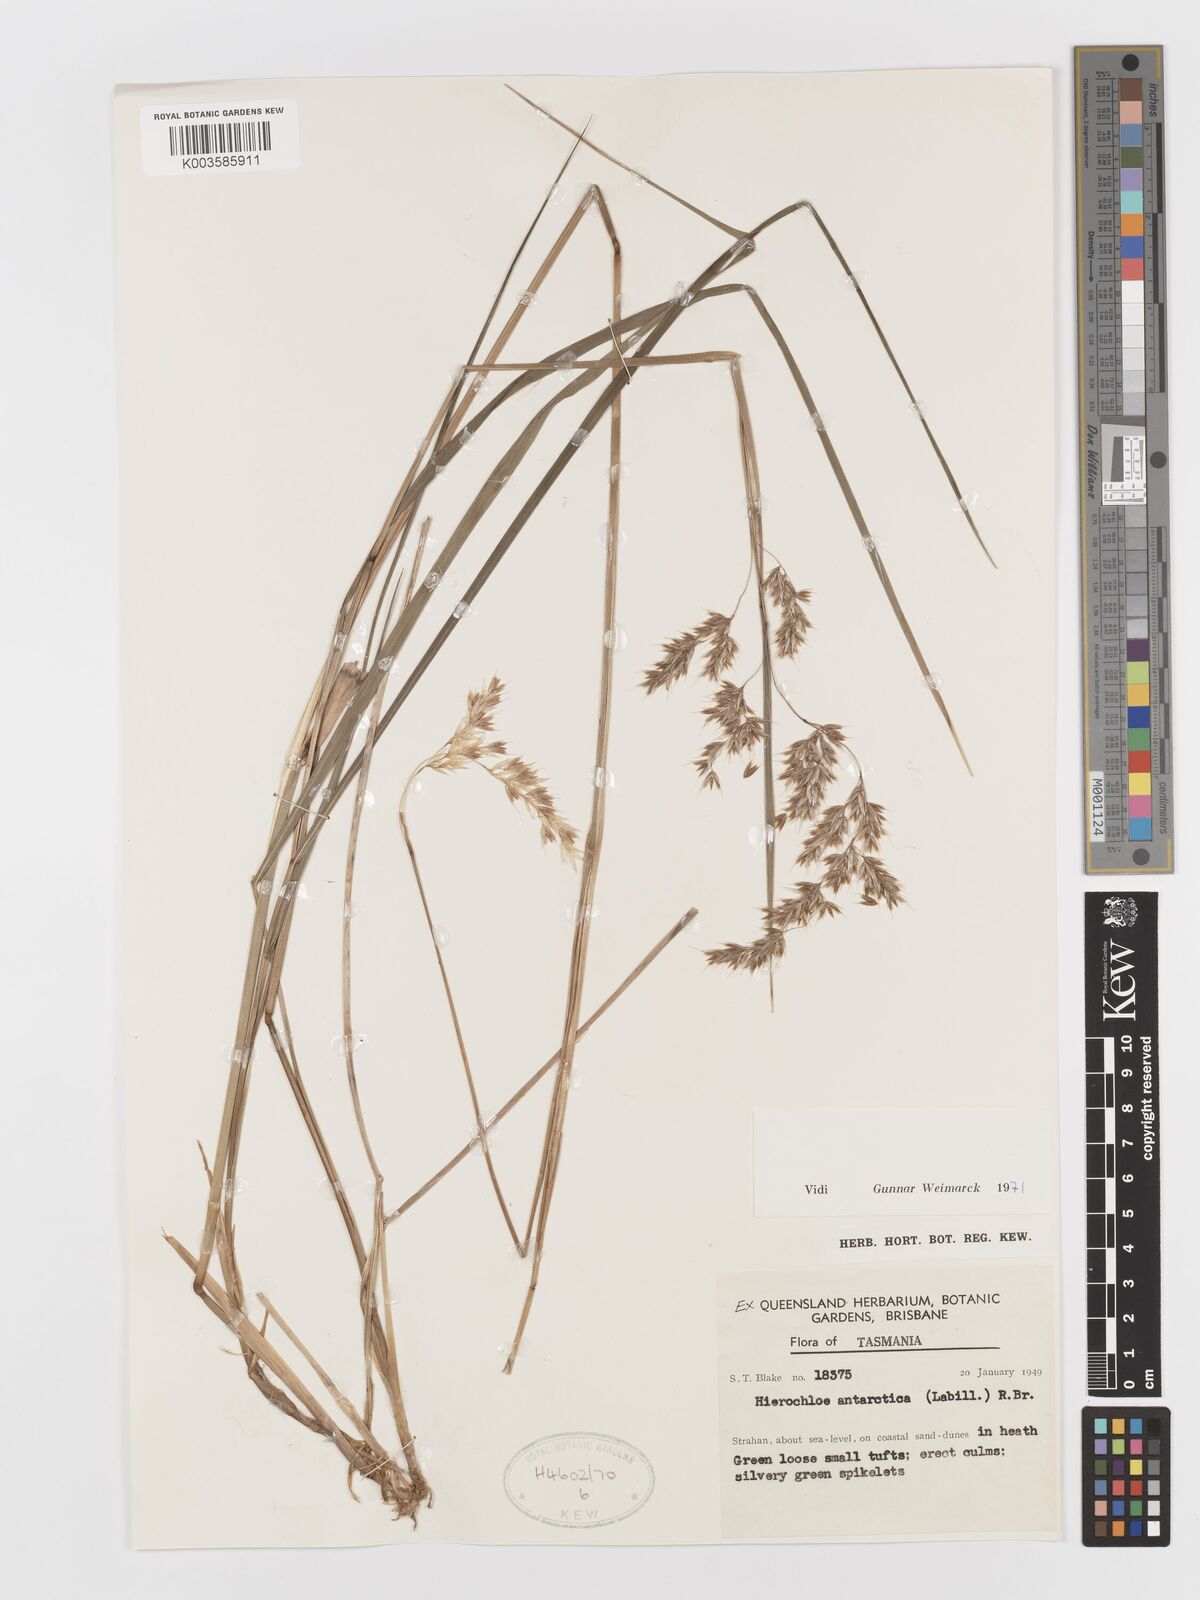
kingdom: Plantae
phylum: Tracheophyta
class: Liliopsida
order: Poales
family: Poaceae
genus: Anthoxanthum
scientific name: Anthoxanthum redolens
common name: Sweet holy grass
